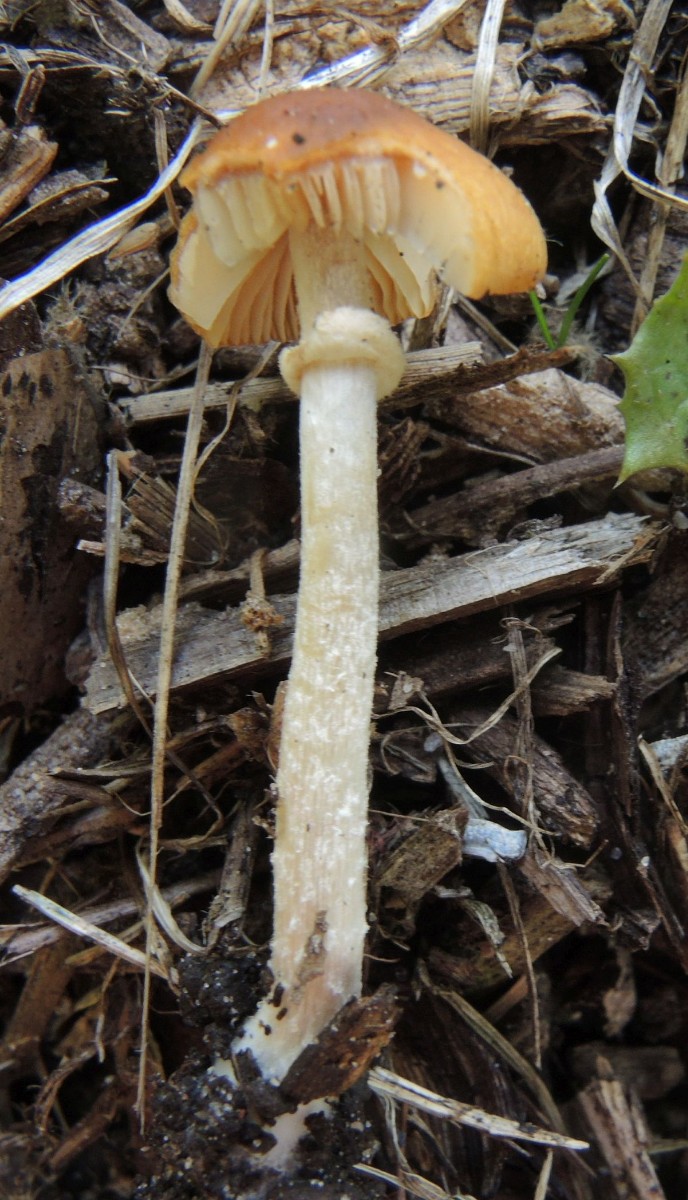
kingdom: Fungi
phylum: Basidiomycota
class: Agaricomycetes
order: Agaricales
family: Bolbitiaceae
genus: Conocybe
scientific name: Conocybe arrhenii
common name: ring-dansehat
